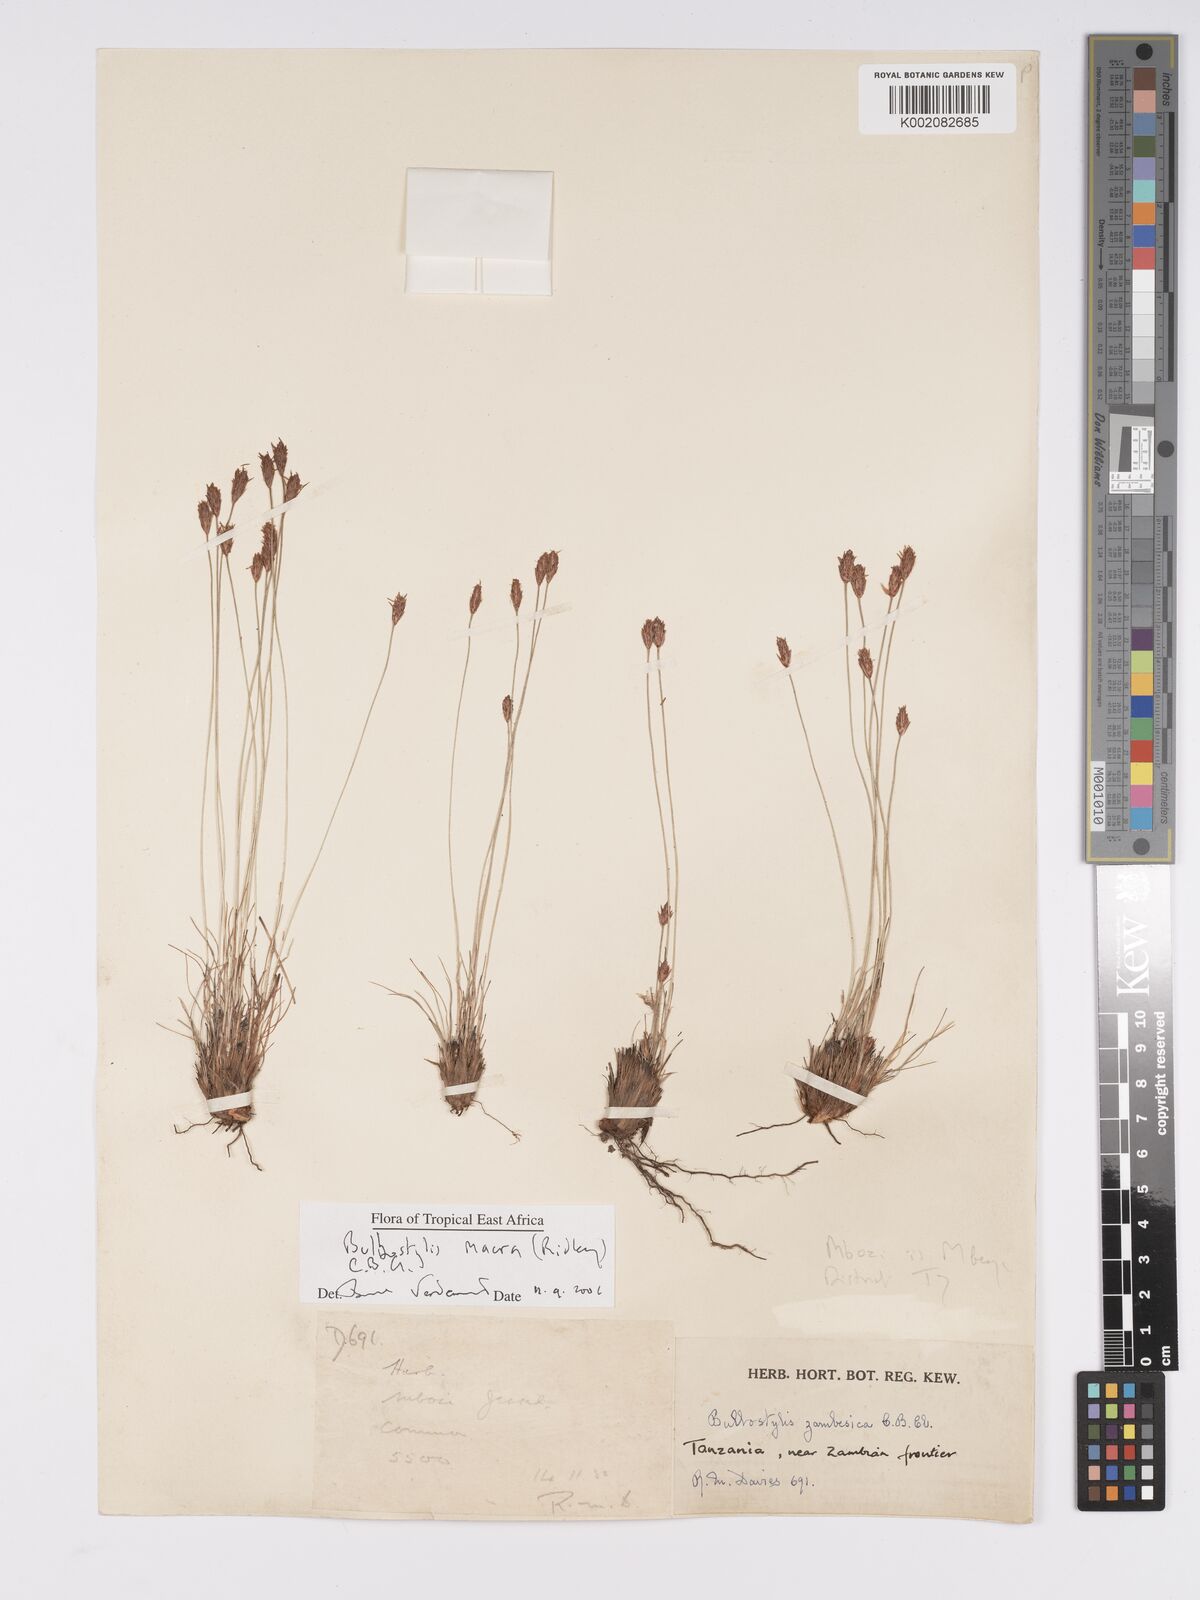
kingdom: Plantae
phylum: Tracheophyta
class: Liliopsida
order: Poales
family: Cyperaceae
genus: Bulbostylis
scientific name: Bulbostylis macra
